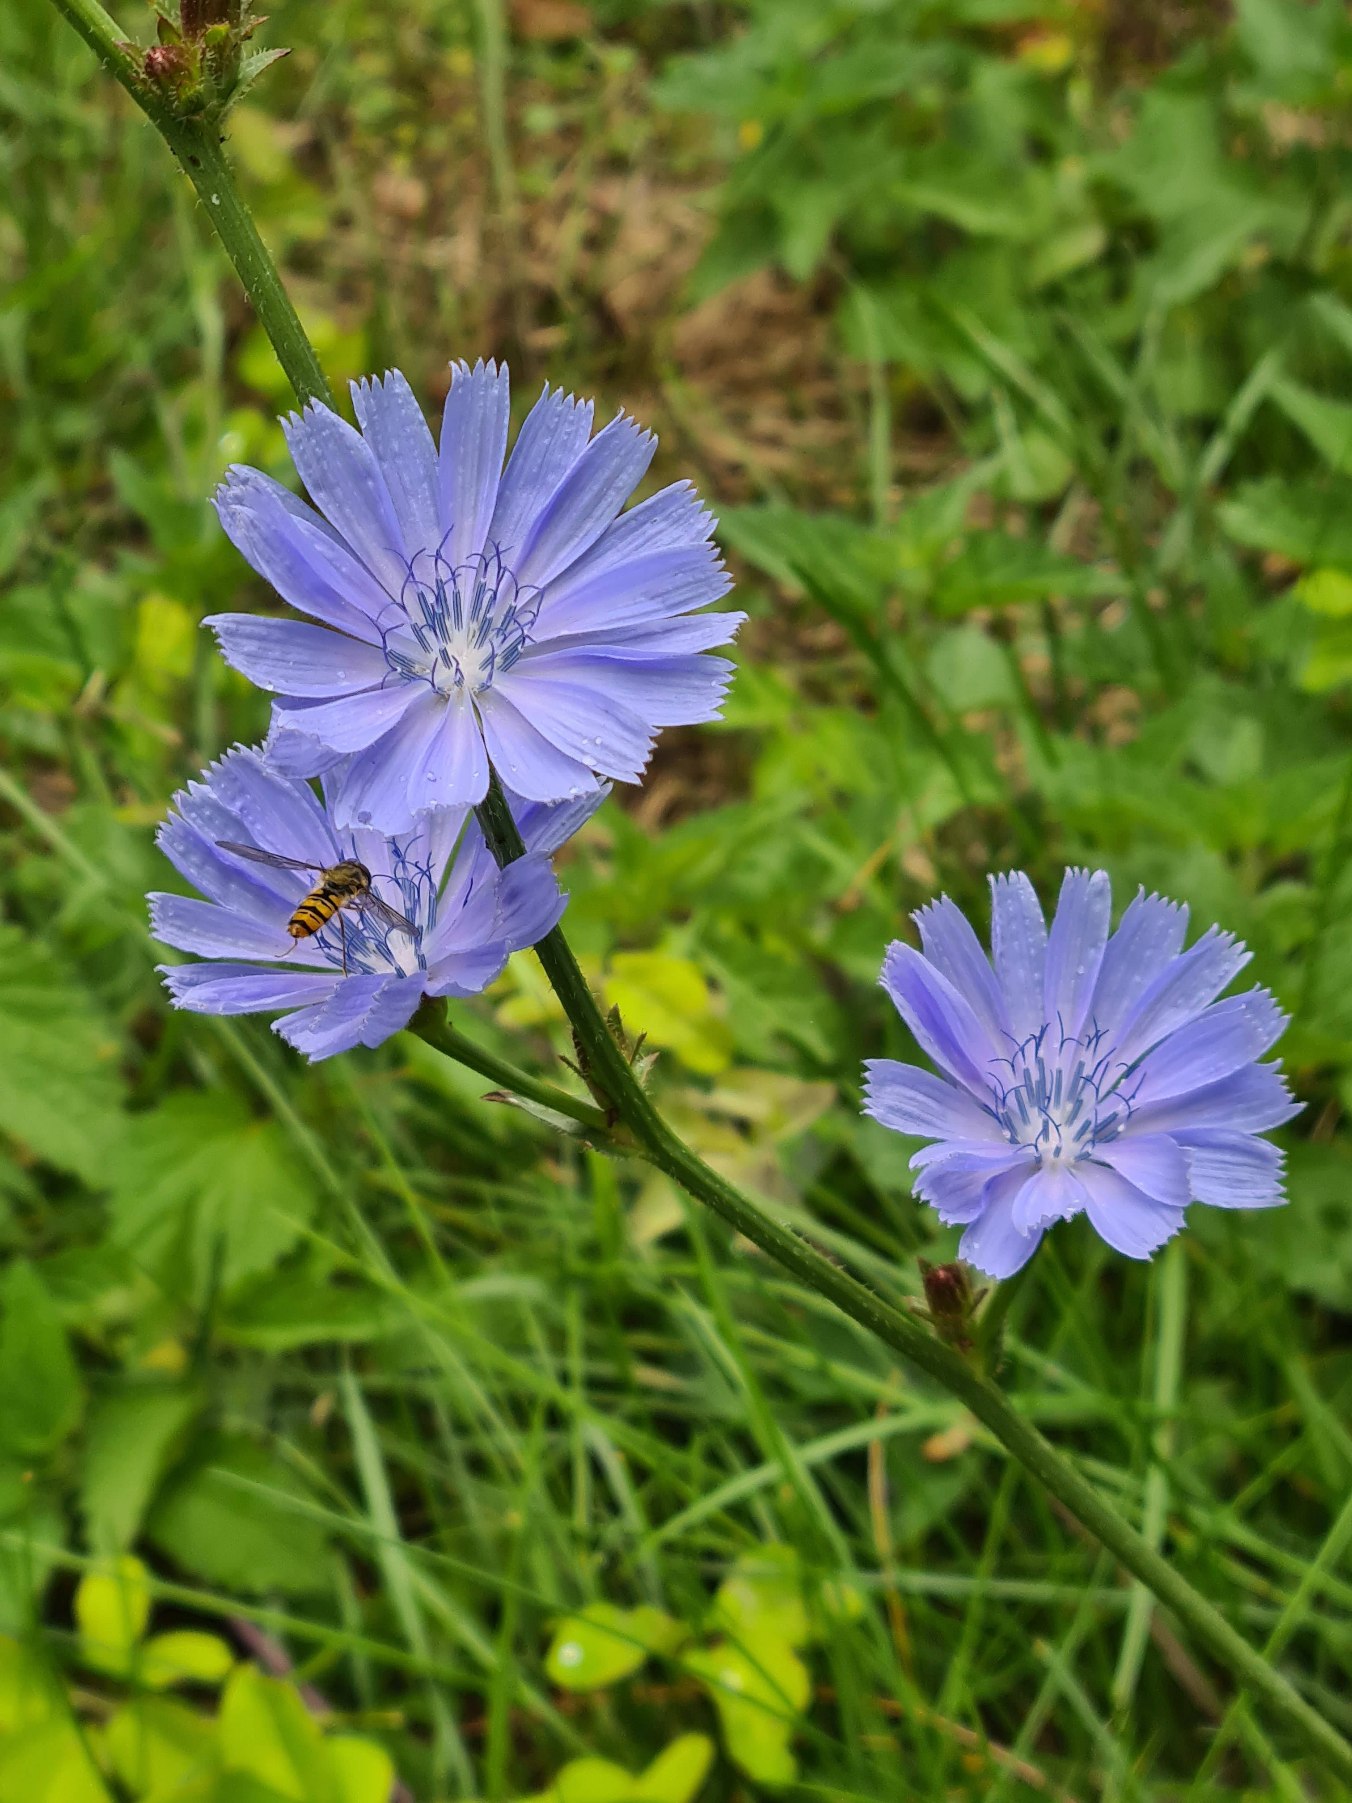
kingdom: Plantae
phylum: Tracheophyta
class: Magnoliopsida
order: Asterales
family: Asteraceae
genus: Cichorium
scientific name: Cichorium intybus
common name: Cikorie (varietet)
